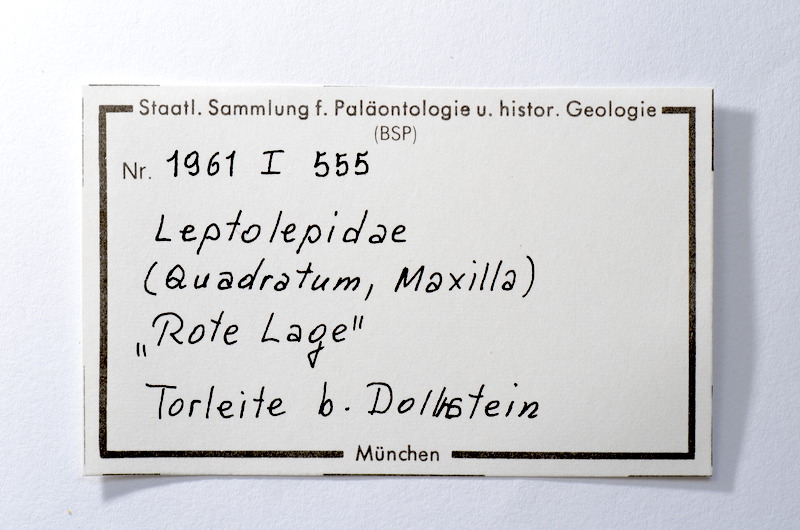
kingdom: Animalia
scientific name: Animalia
